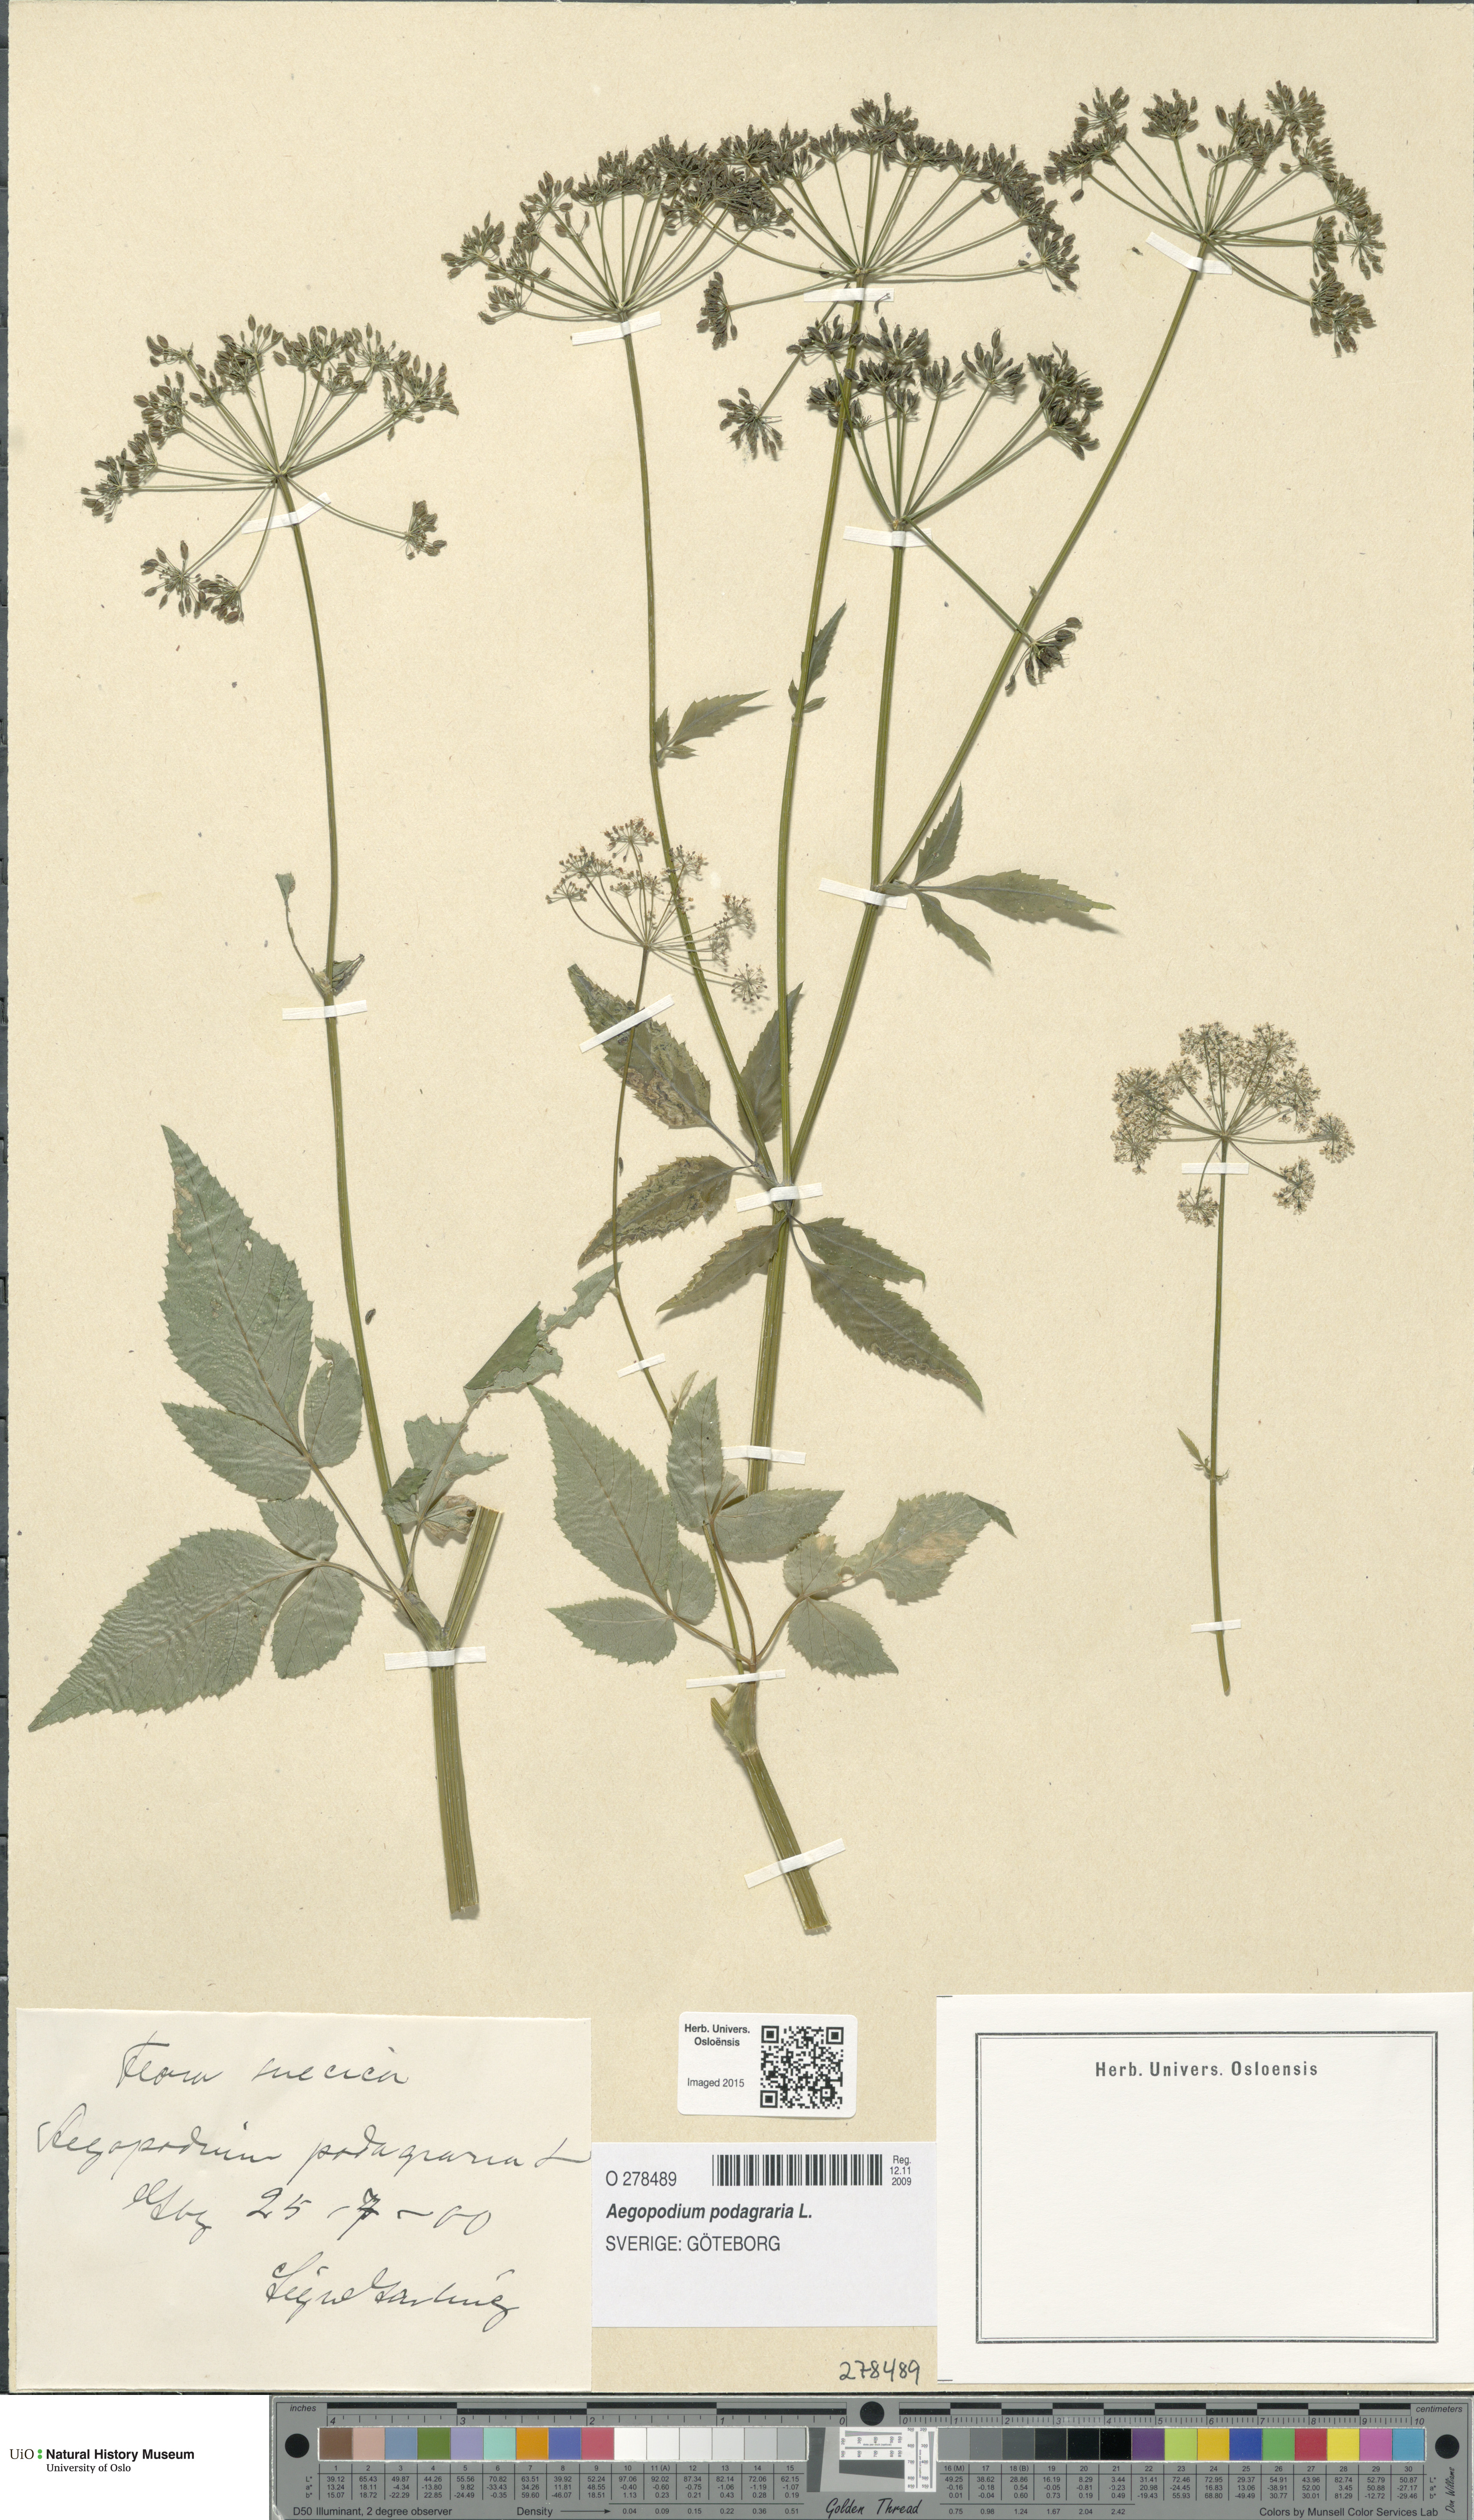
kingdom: Plantae
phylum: Tracheophyta
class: Magnoliopsida
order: Apiales
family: Apiaceae
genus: Aegopodium
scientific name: Aegopodium podagraria
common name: Ground-elder
